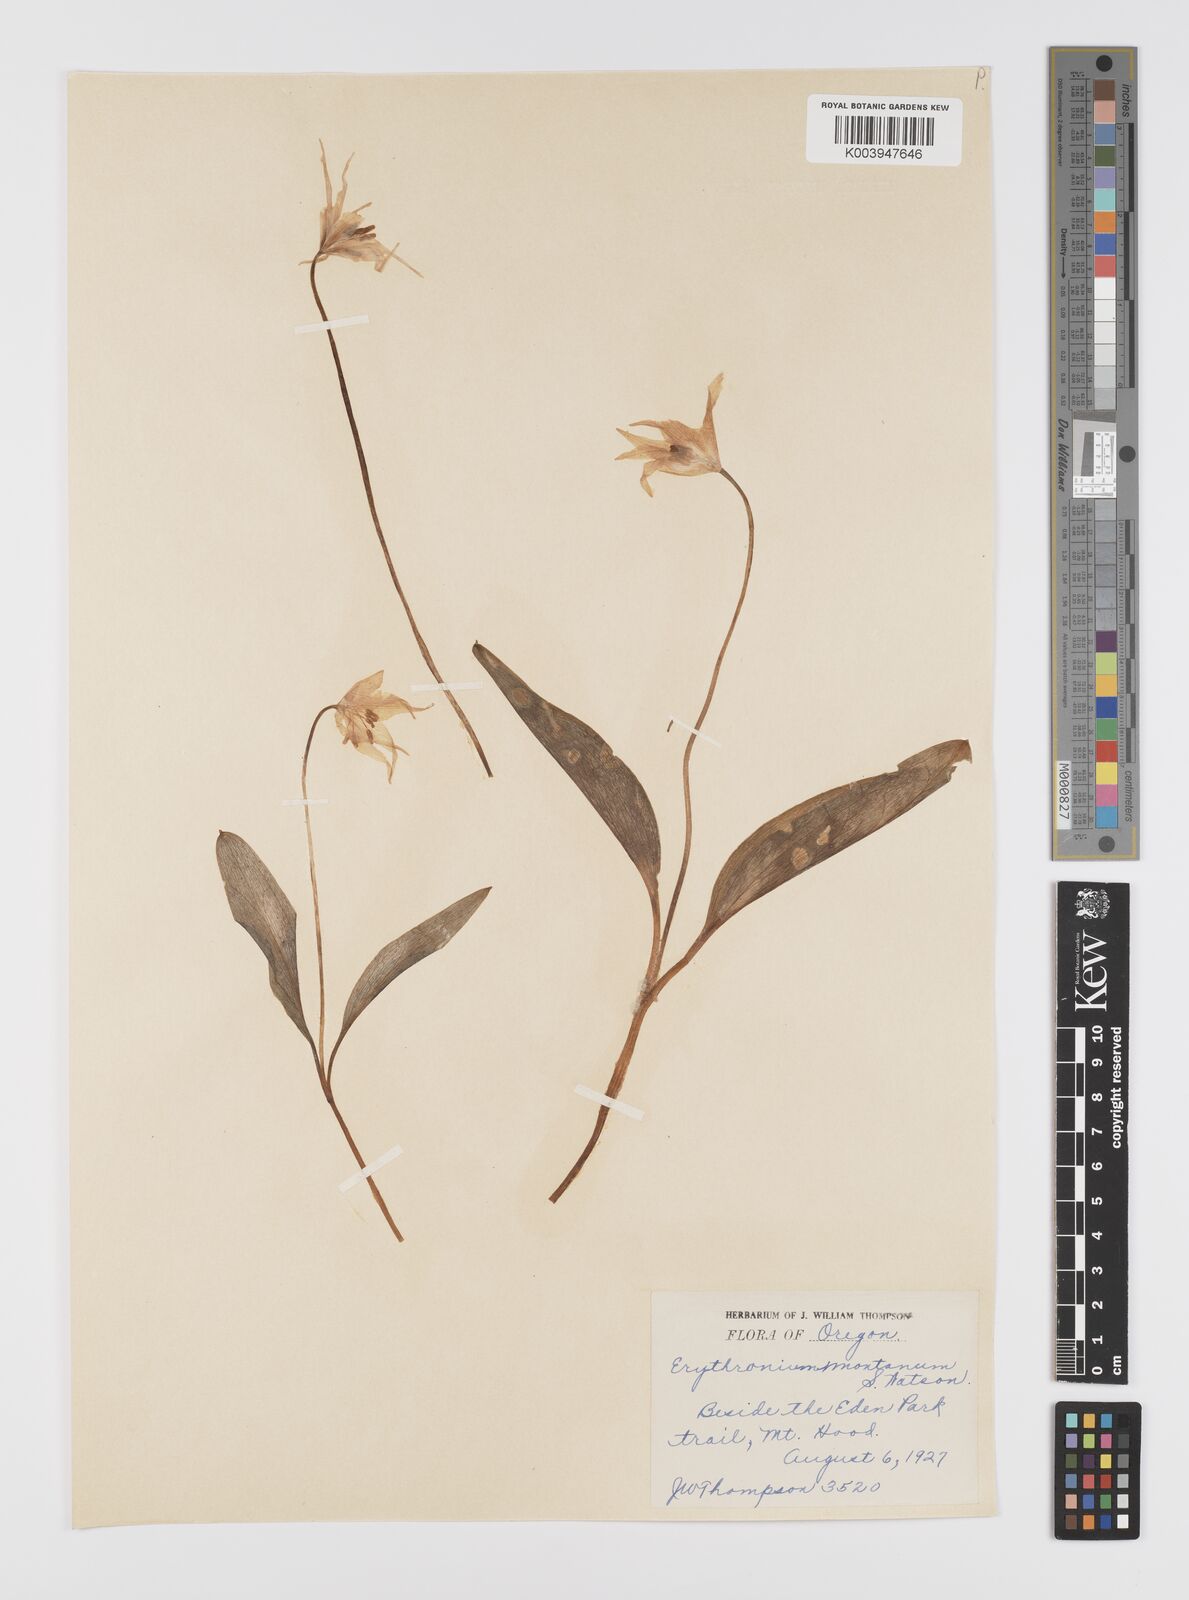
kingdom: Plantae
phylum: Tracheophyta
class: Liliopsida
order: Liliales
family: Liliaceae
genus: Erythronium
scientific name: Erythronium montanum
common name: Avalanche lily
